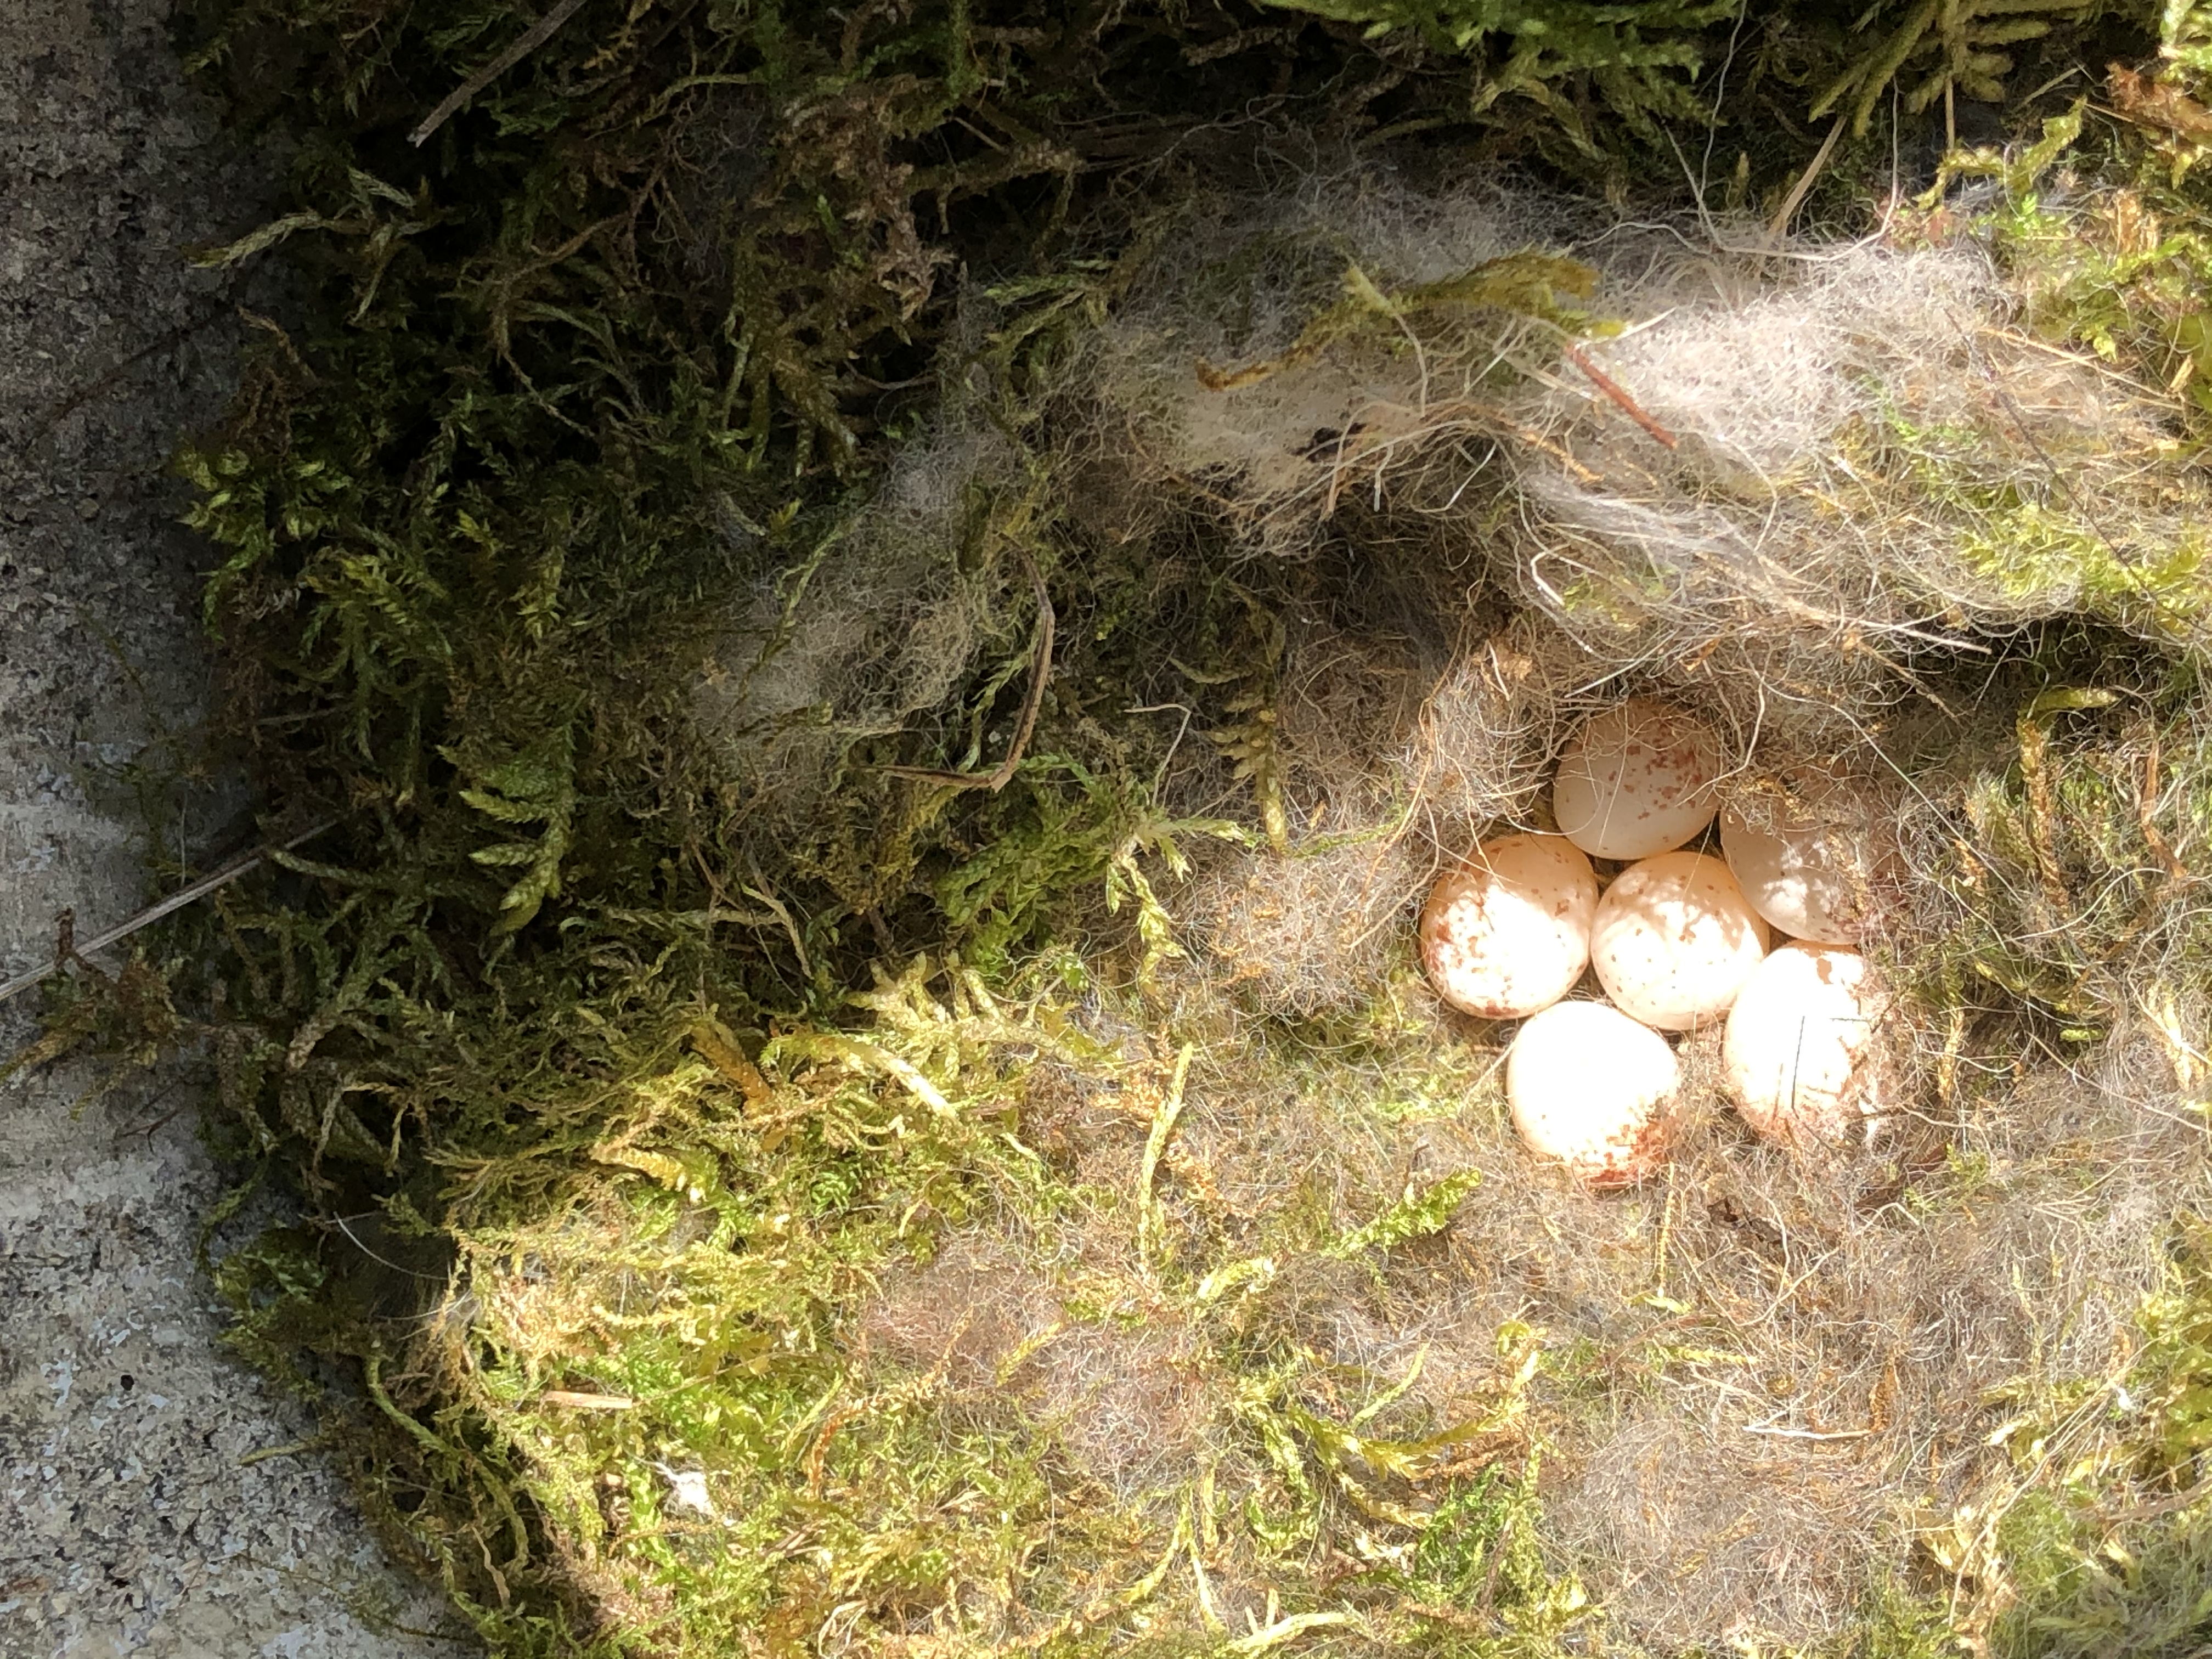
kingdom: Animalia
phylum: Chordata
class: Aves
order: Passeriformes
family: Paridae
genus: Parus
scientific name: Parus major
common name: Great tit
